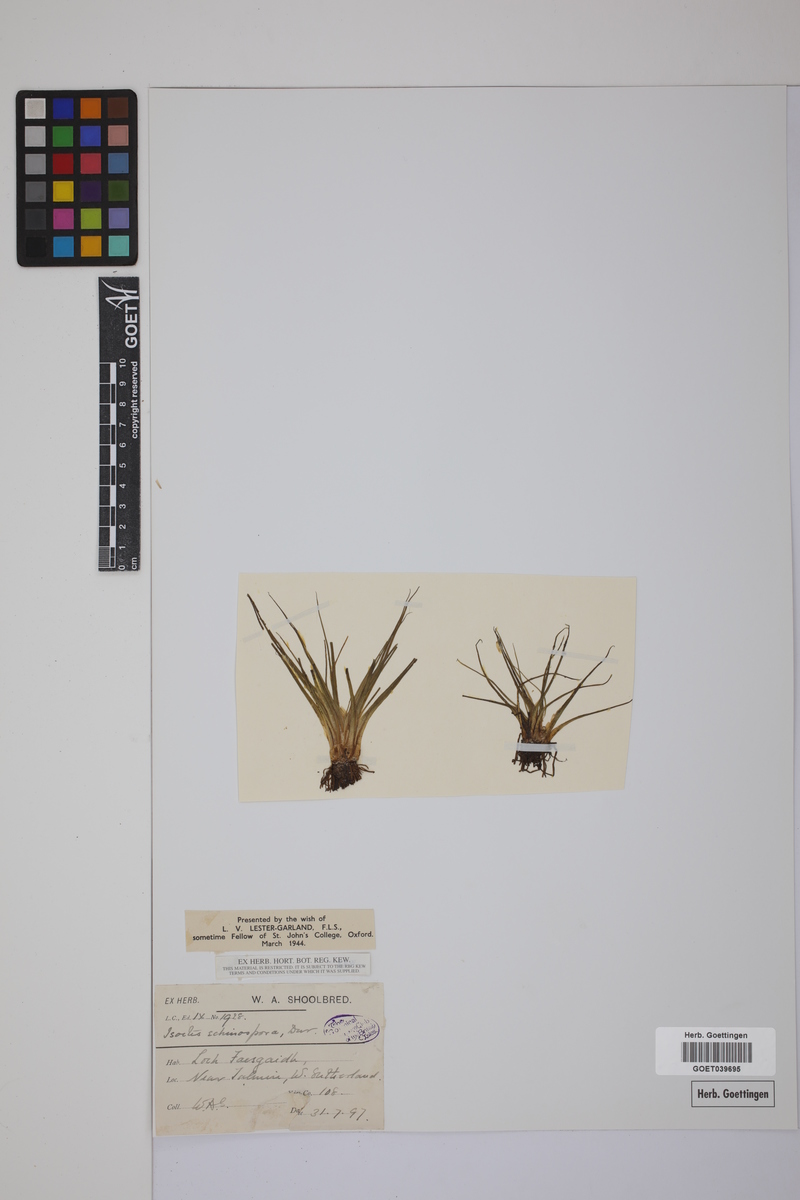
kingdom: Plantae
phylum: Tracheophyta
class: Lycopodiopsida
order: Isoetales
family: Isoetaceae
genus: Isoetes
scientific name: Isoetes echinospora
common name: Spring quillwort
